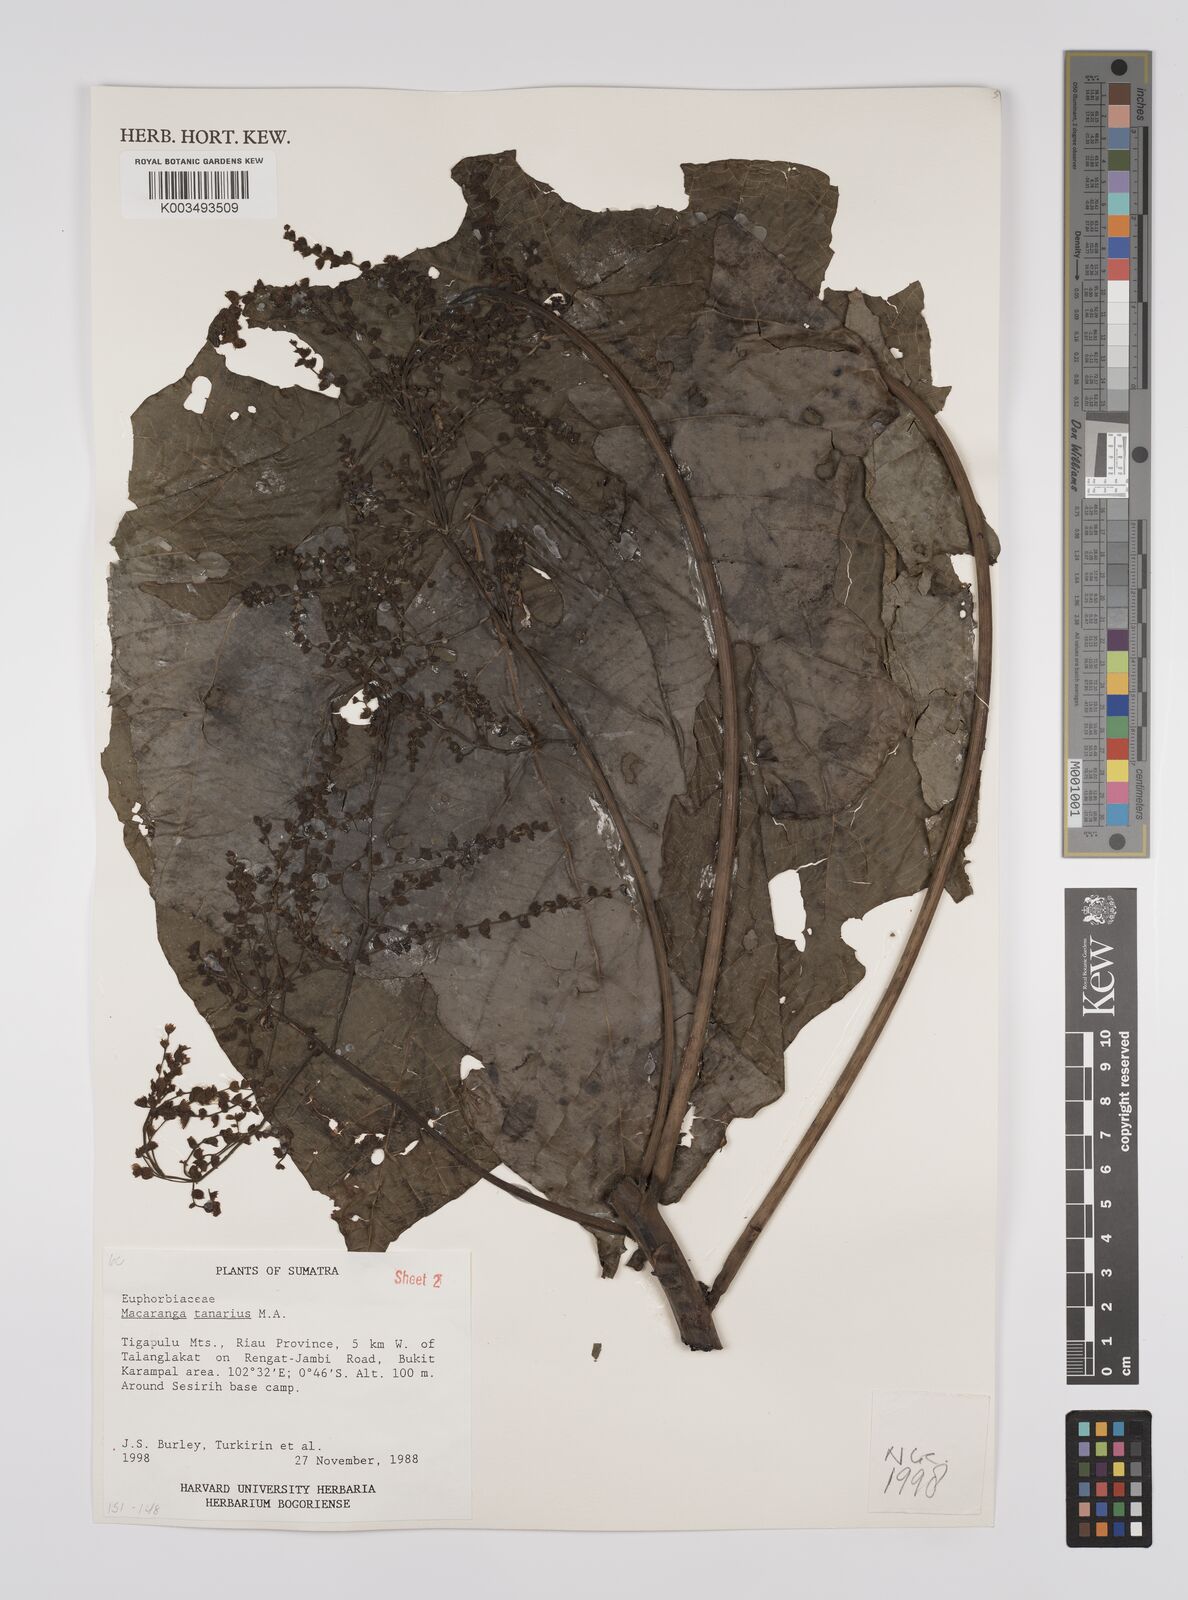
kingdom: Plantae
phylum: Tracheophyta
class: Magnoliopsida
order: Malpighiales
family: Euphorbiaceae
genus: Macaranga
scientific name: Macaranga tanarius
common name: Parasol leaf tree
